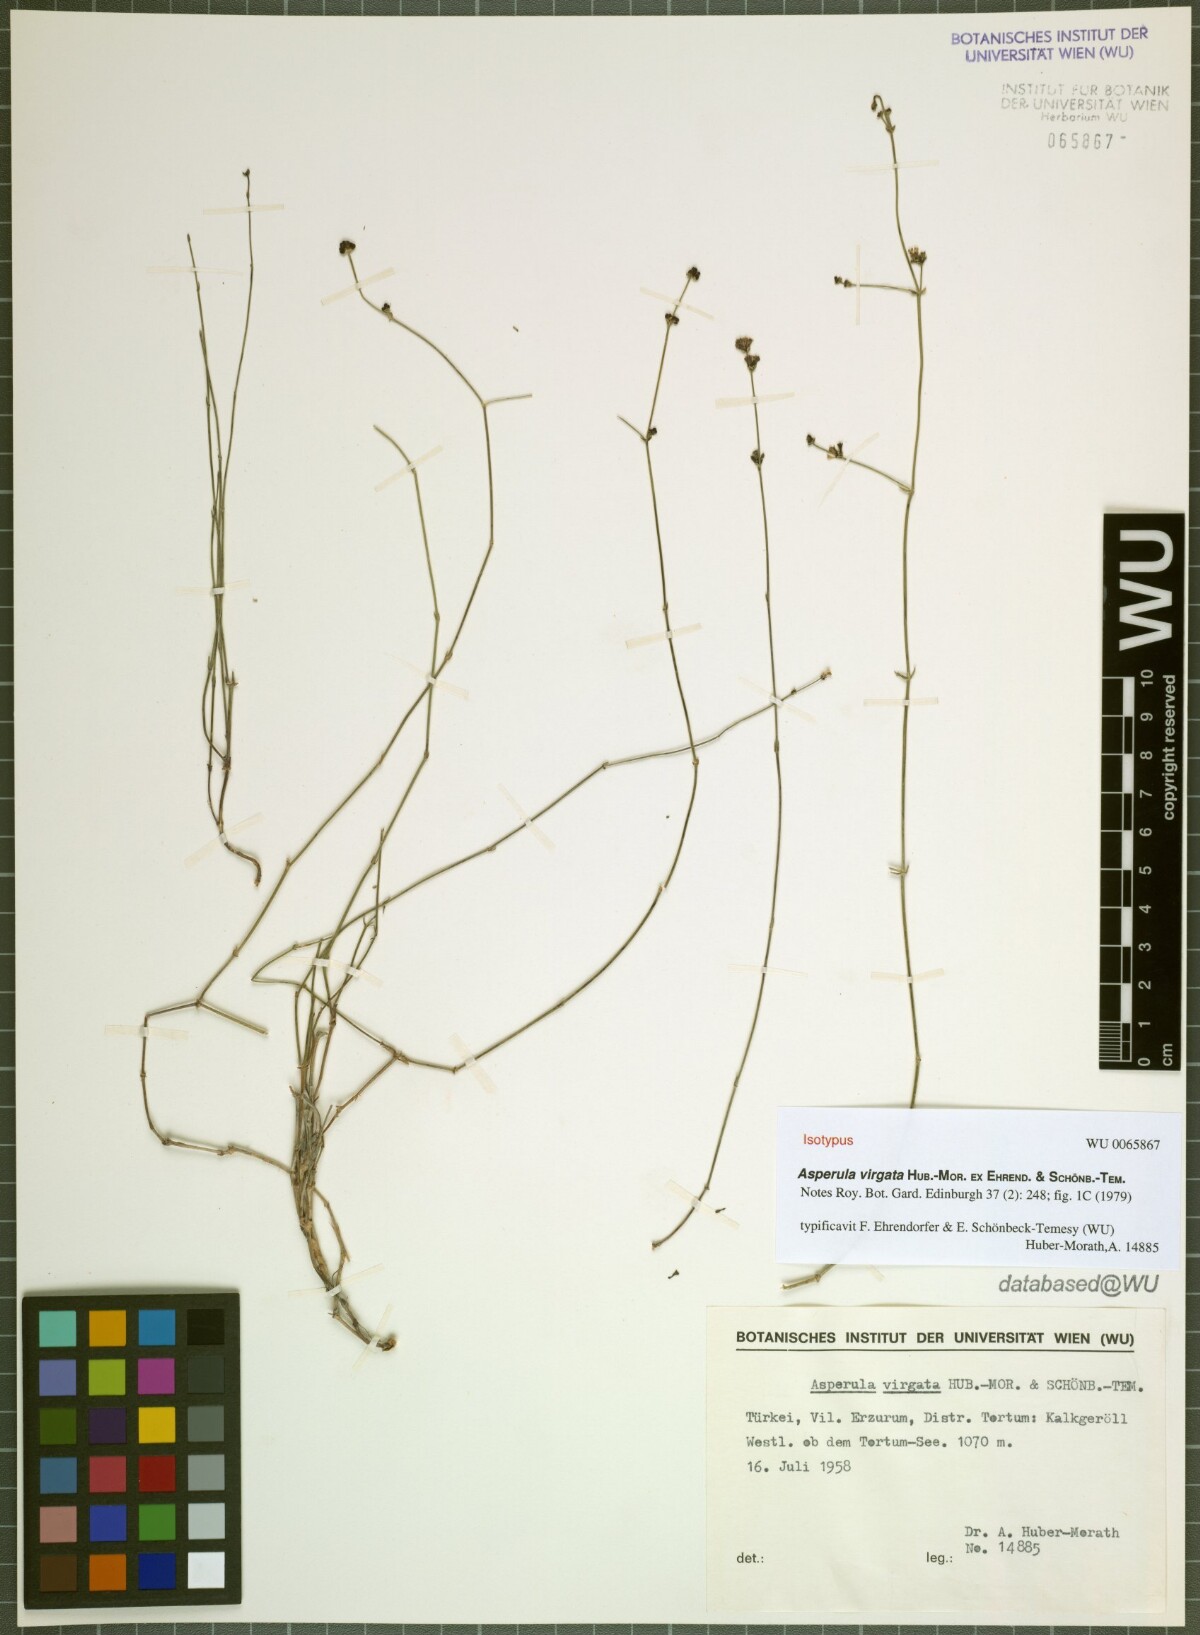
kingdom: Plantae
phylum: Tracheophyta
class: Magnoliopsida
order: Gentianales
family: Rubiaceae
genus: Asperula
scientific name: Asperula virgata
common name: Rod-shaped woodruff
